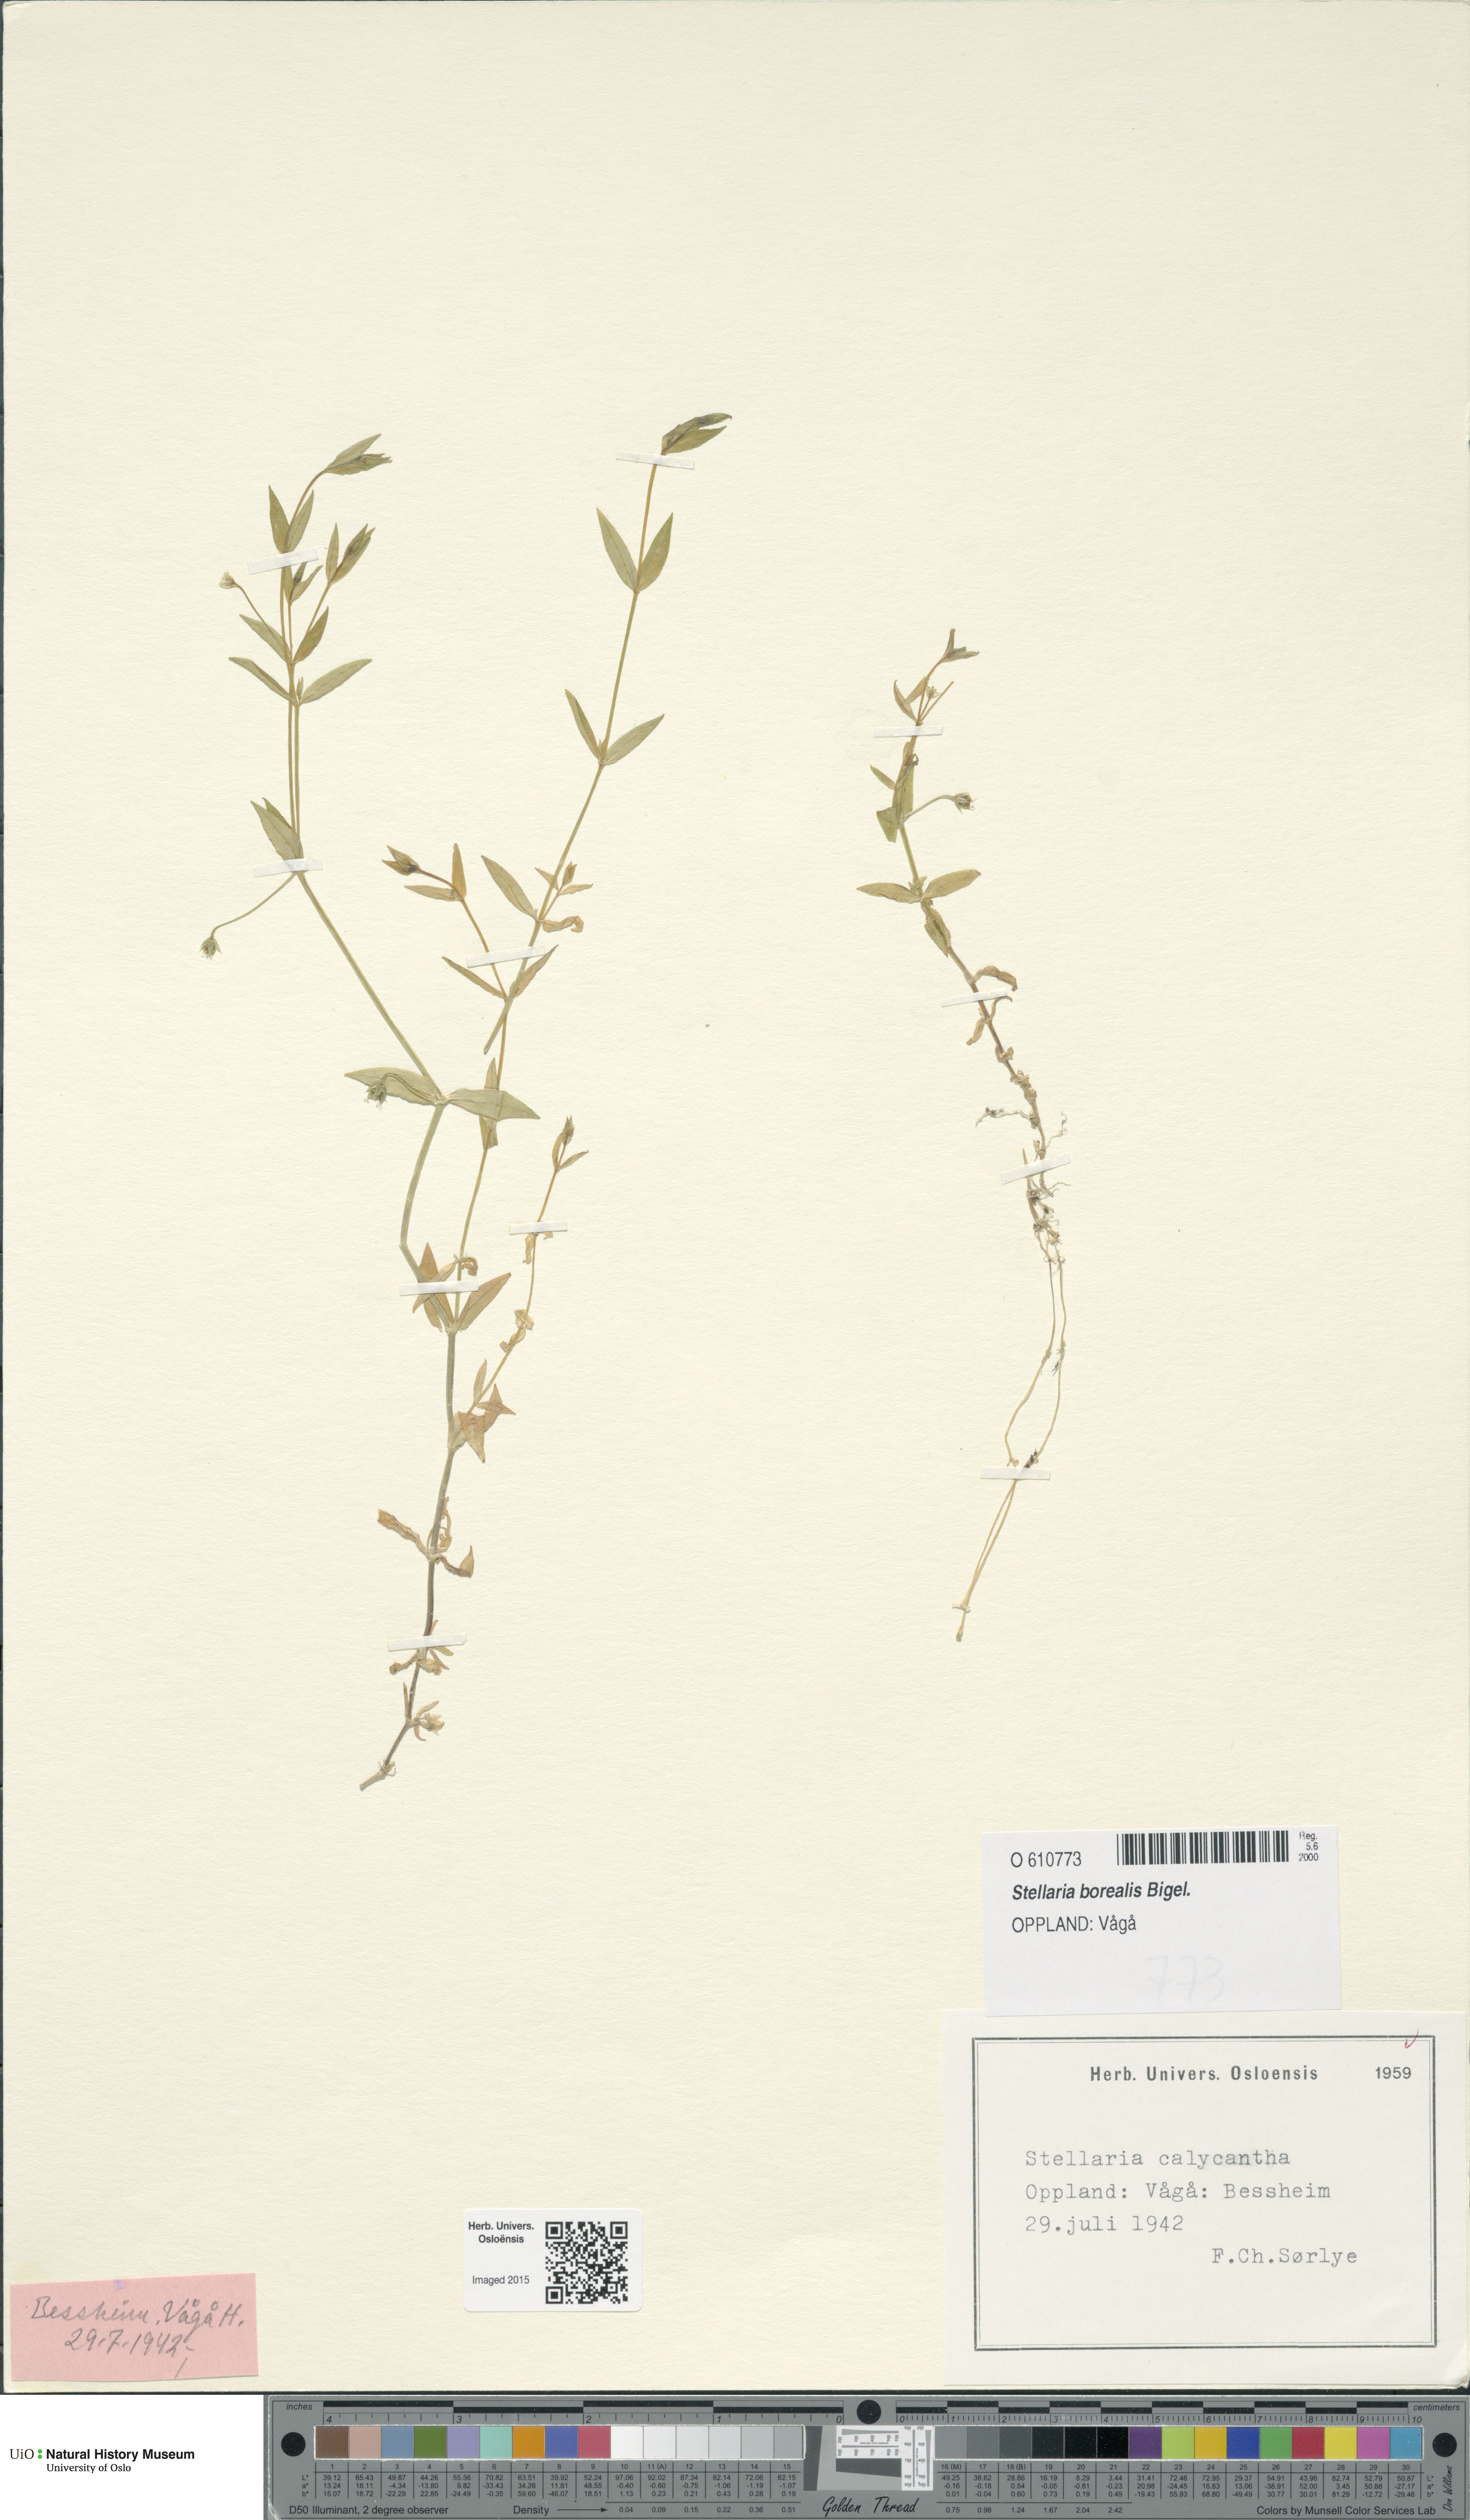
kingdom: Plantae
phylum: Tracheophyta
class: Magnoliopsida
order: Caryophyllales
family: Caryophyllaceae
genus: Stellaria
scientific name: Stellaria borealis
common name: Boreal starwort
